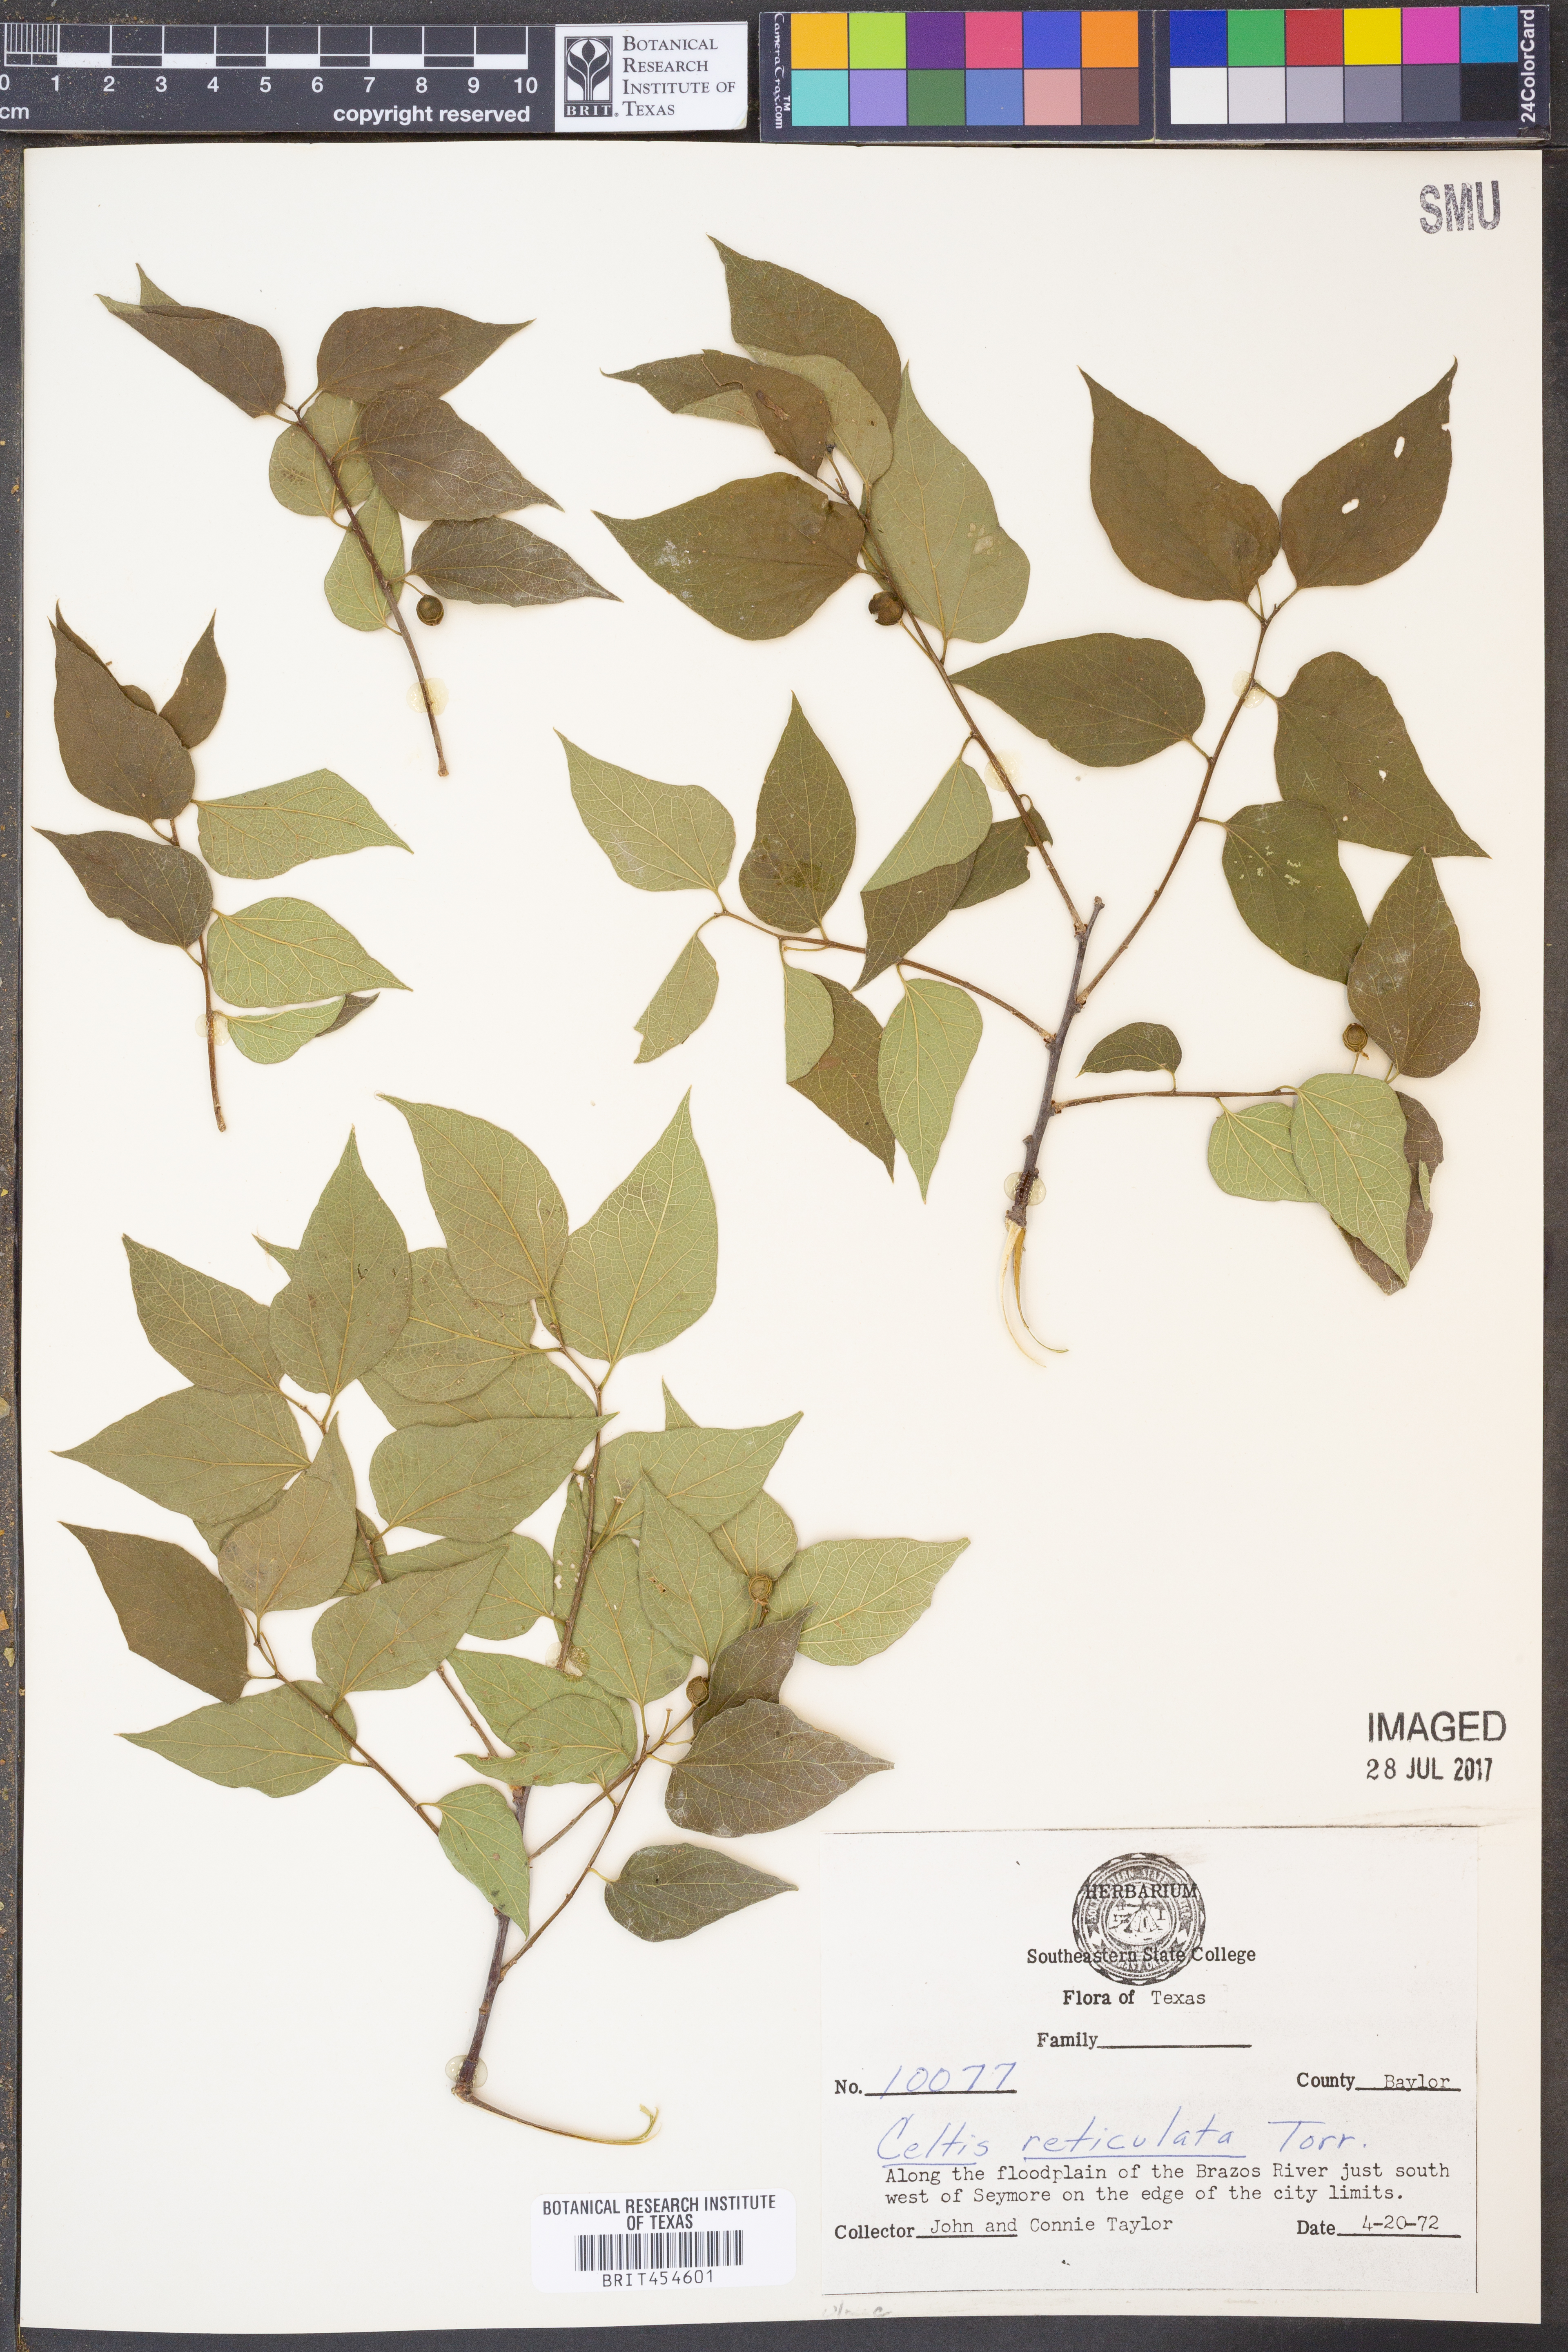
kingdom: Plantae
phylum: Tracheophyta
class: Magnoliopsida
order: Rosales
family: Cannabaceae
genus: Celtis
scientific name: Celtis reticulata
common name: Netleaf hackberry
